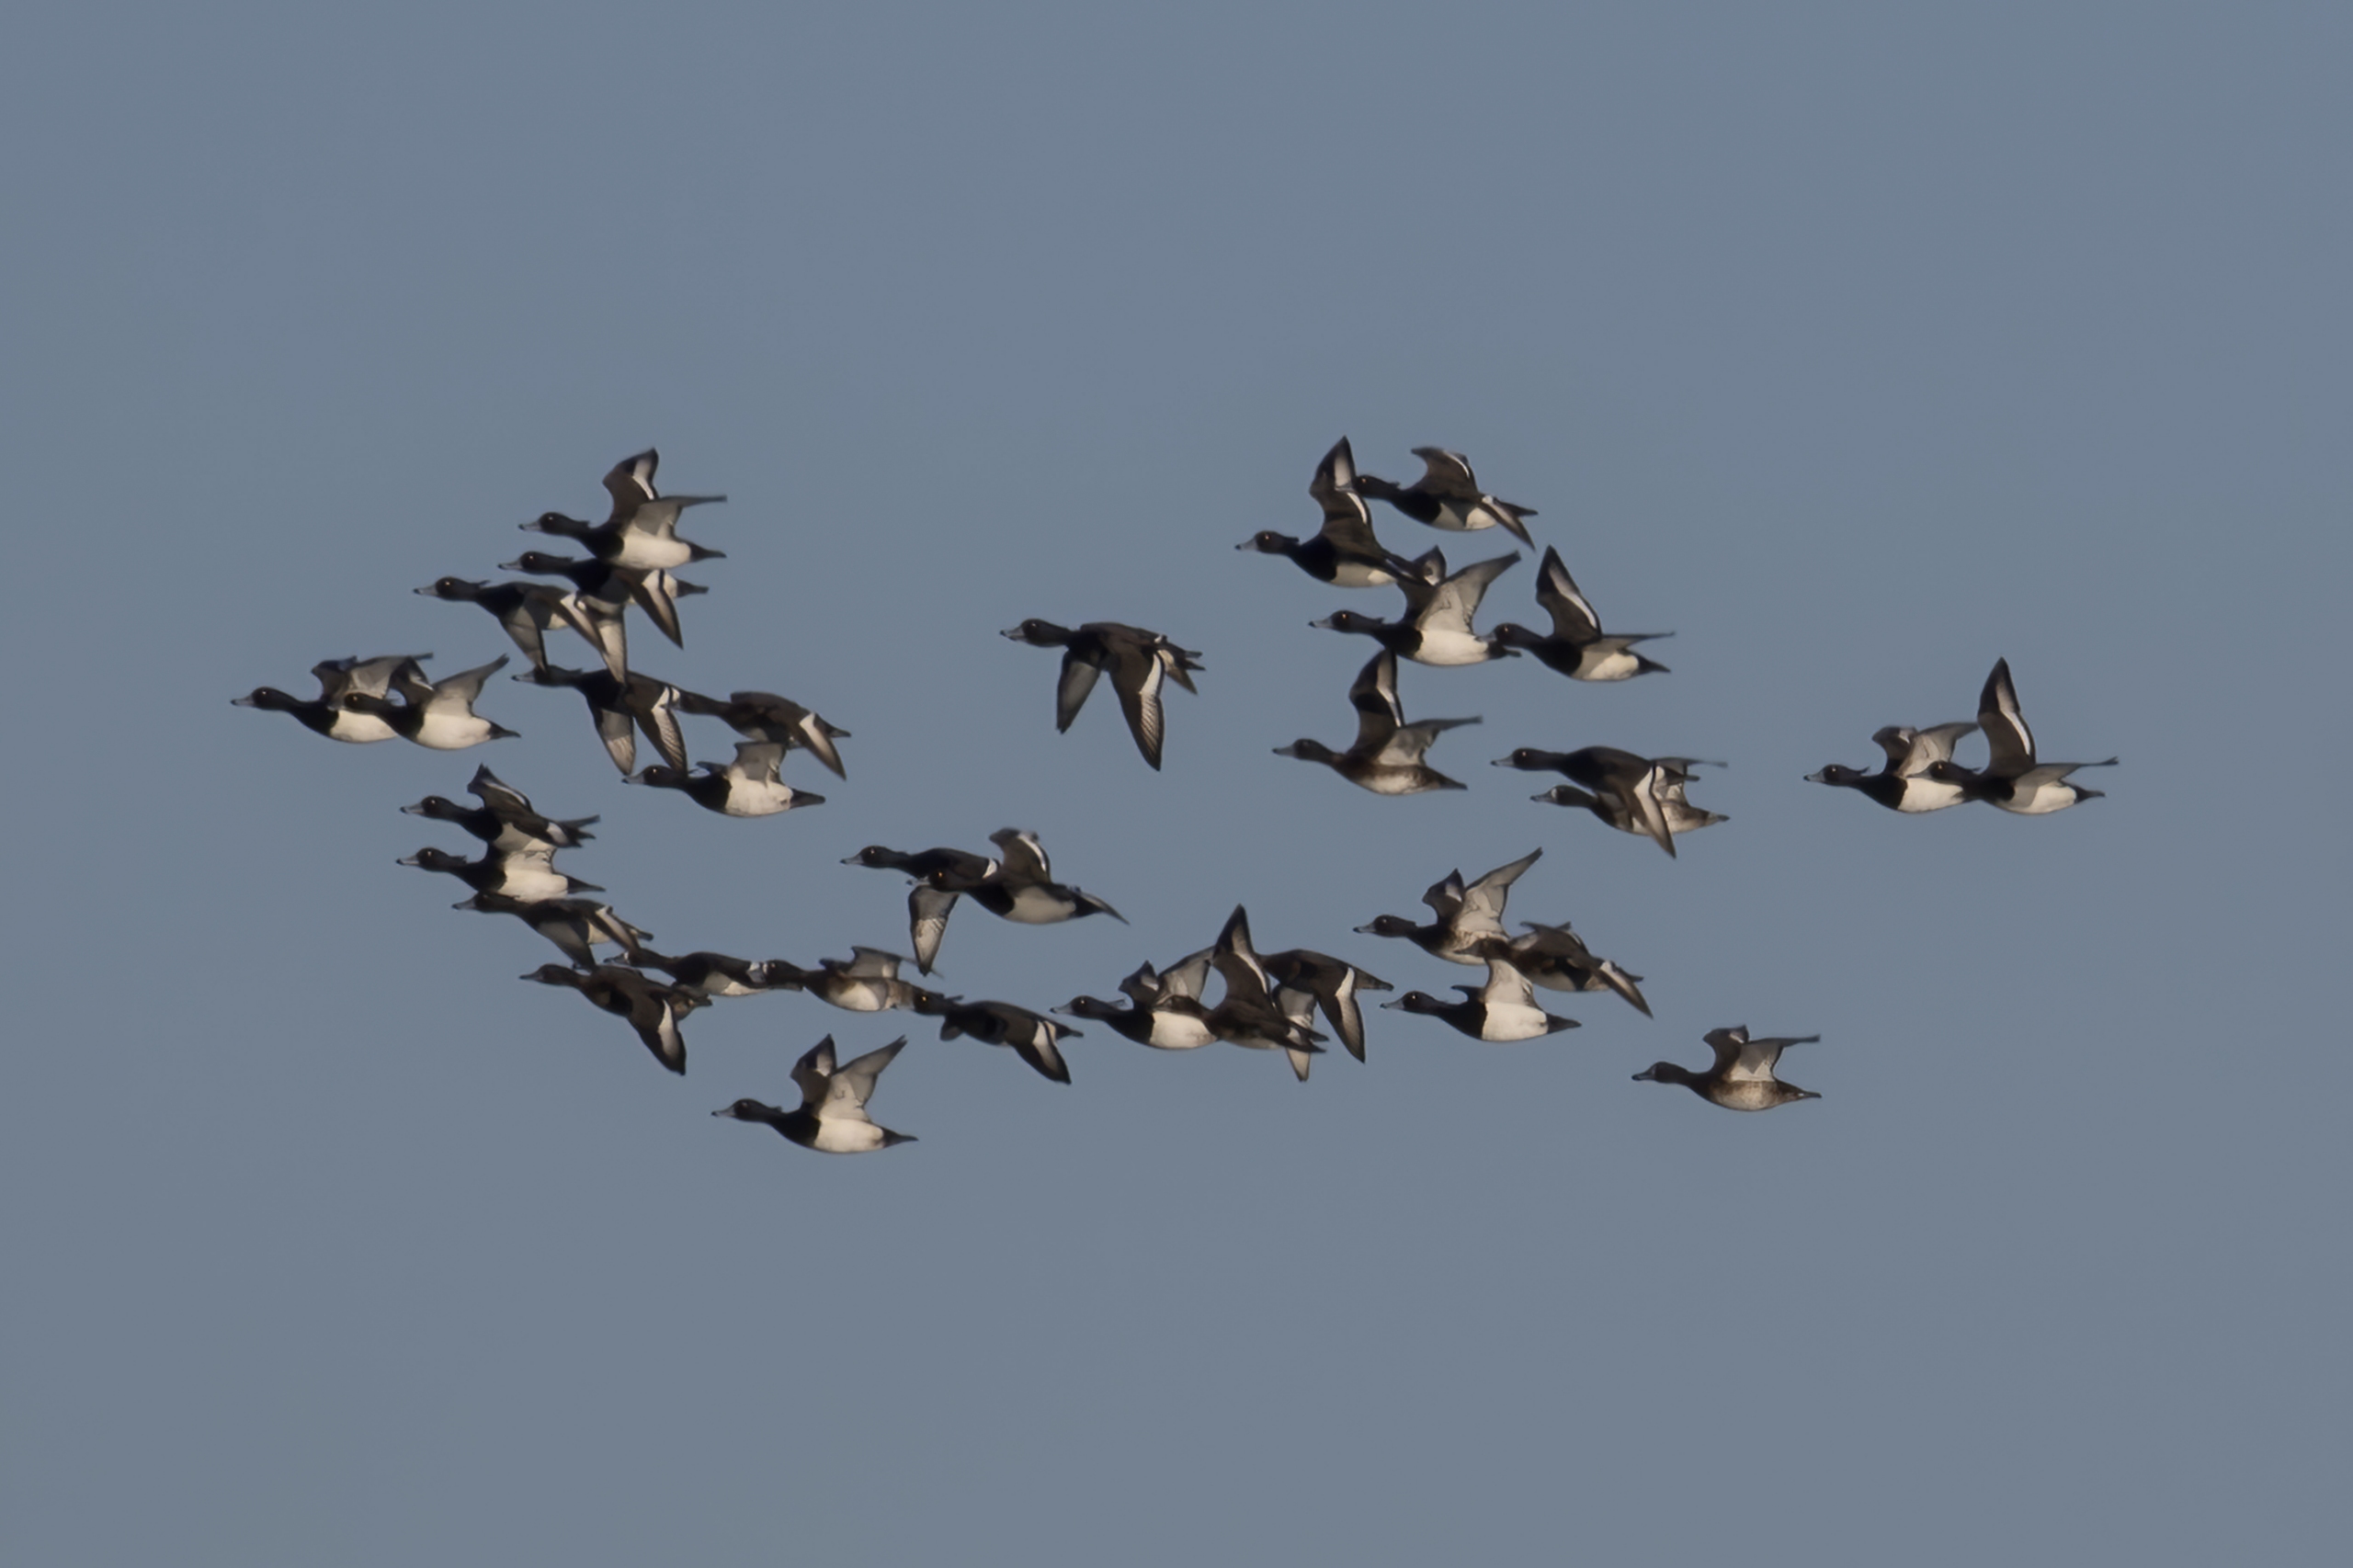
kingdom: Animalia
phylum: Chordata
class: Aves
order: Anseriformes
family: Anatidae
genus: Aythya
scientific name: Aythya fuligula
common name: Troldand
